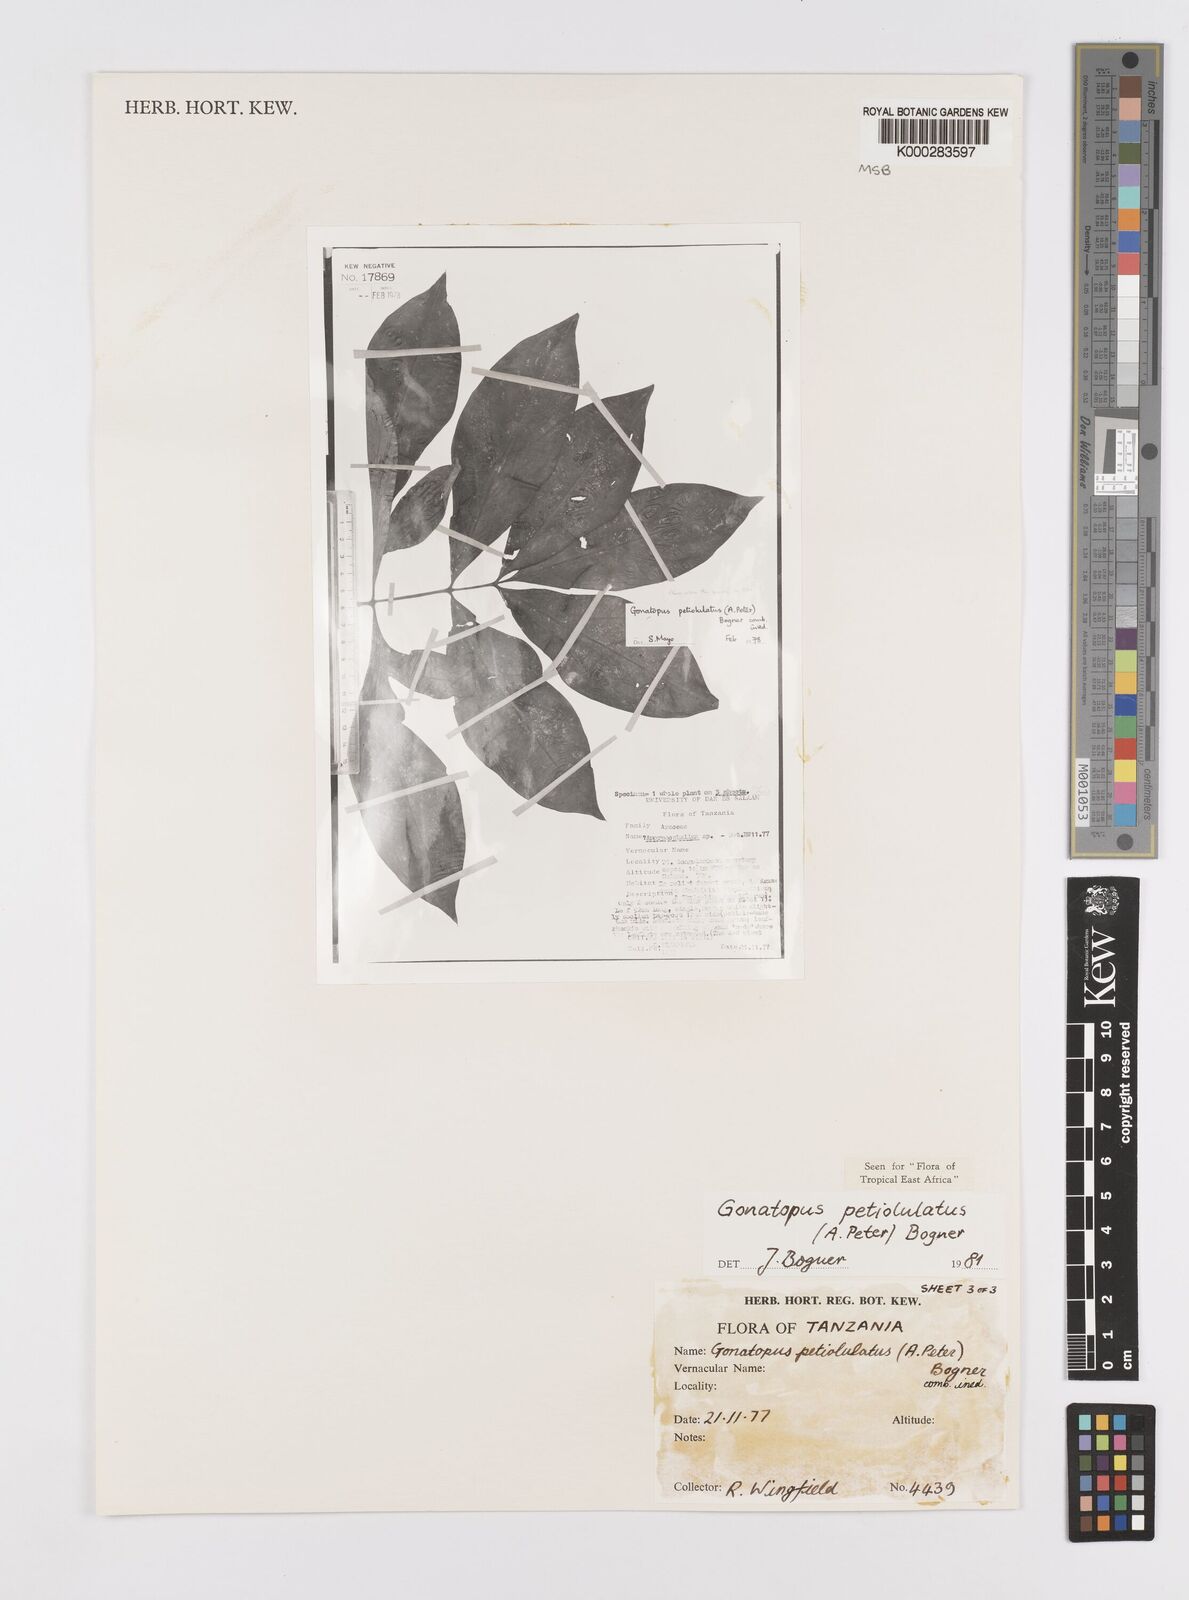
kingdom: Plantae
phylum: Tracheophyta
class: Liliopsida
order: Alismatales
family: Araceae
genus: Gonatopus
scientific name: Gonatopus petiolulatus
